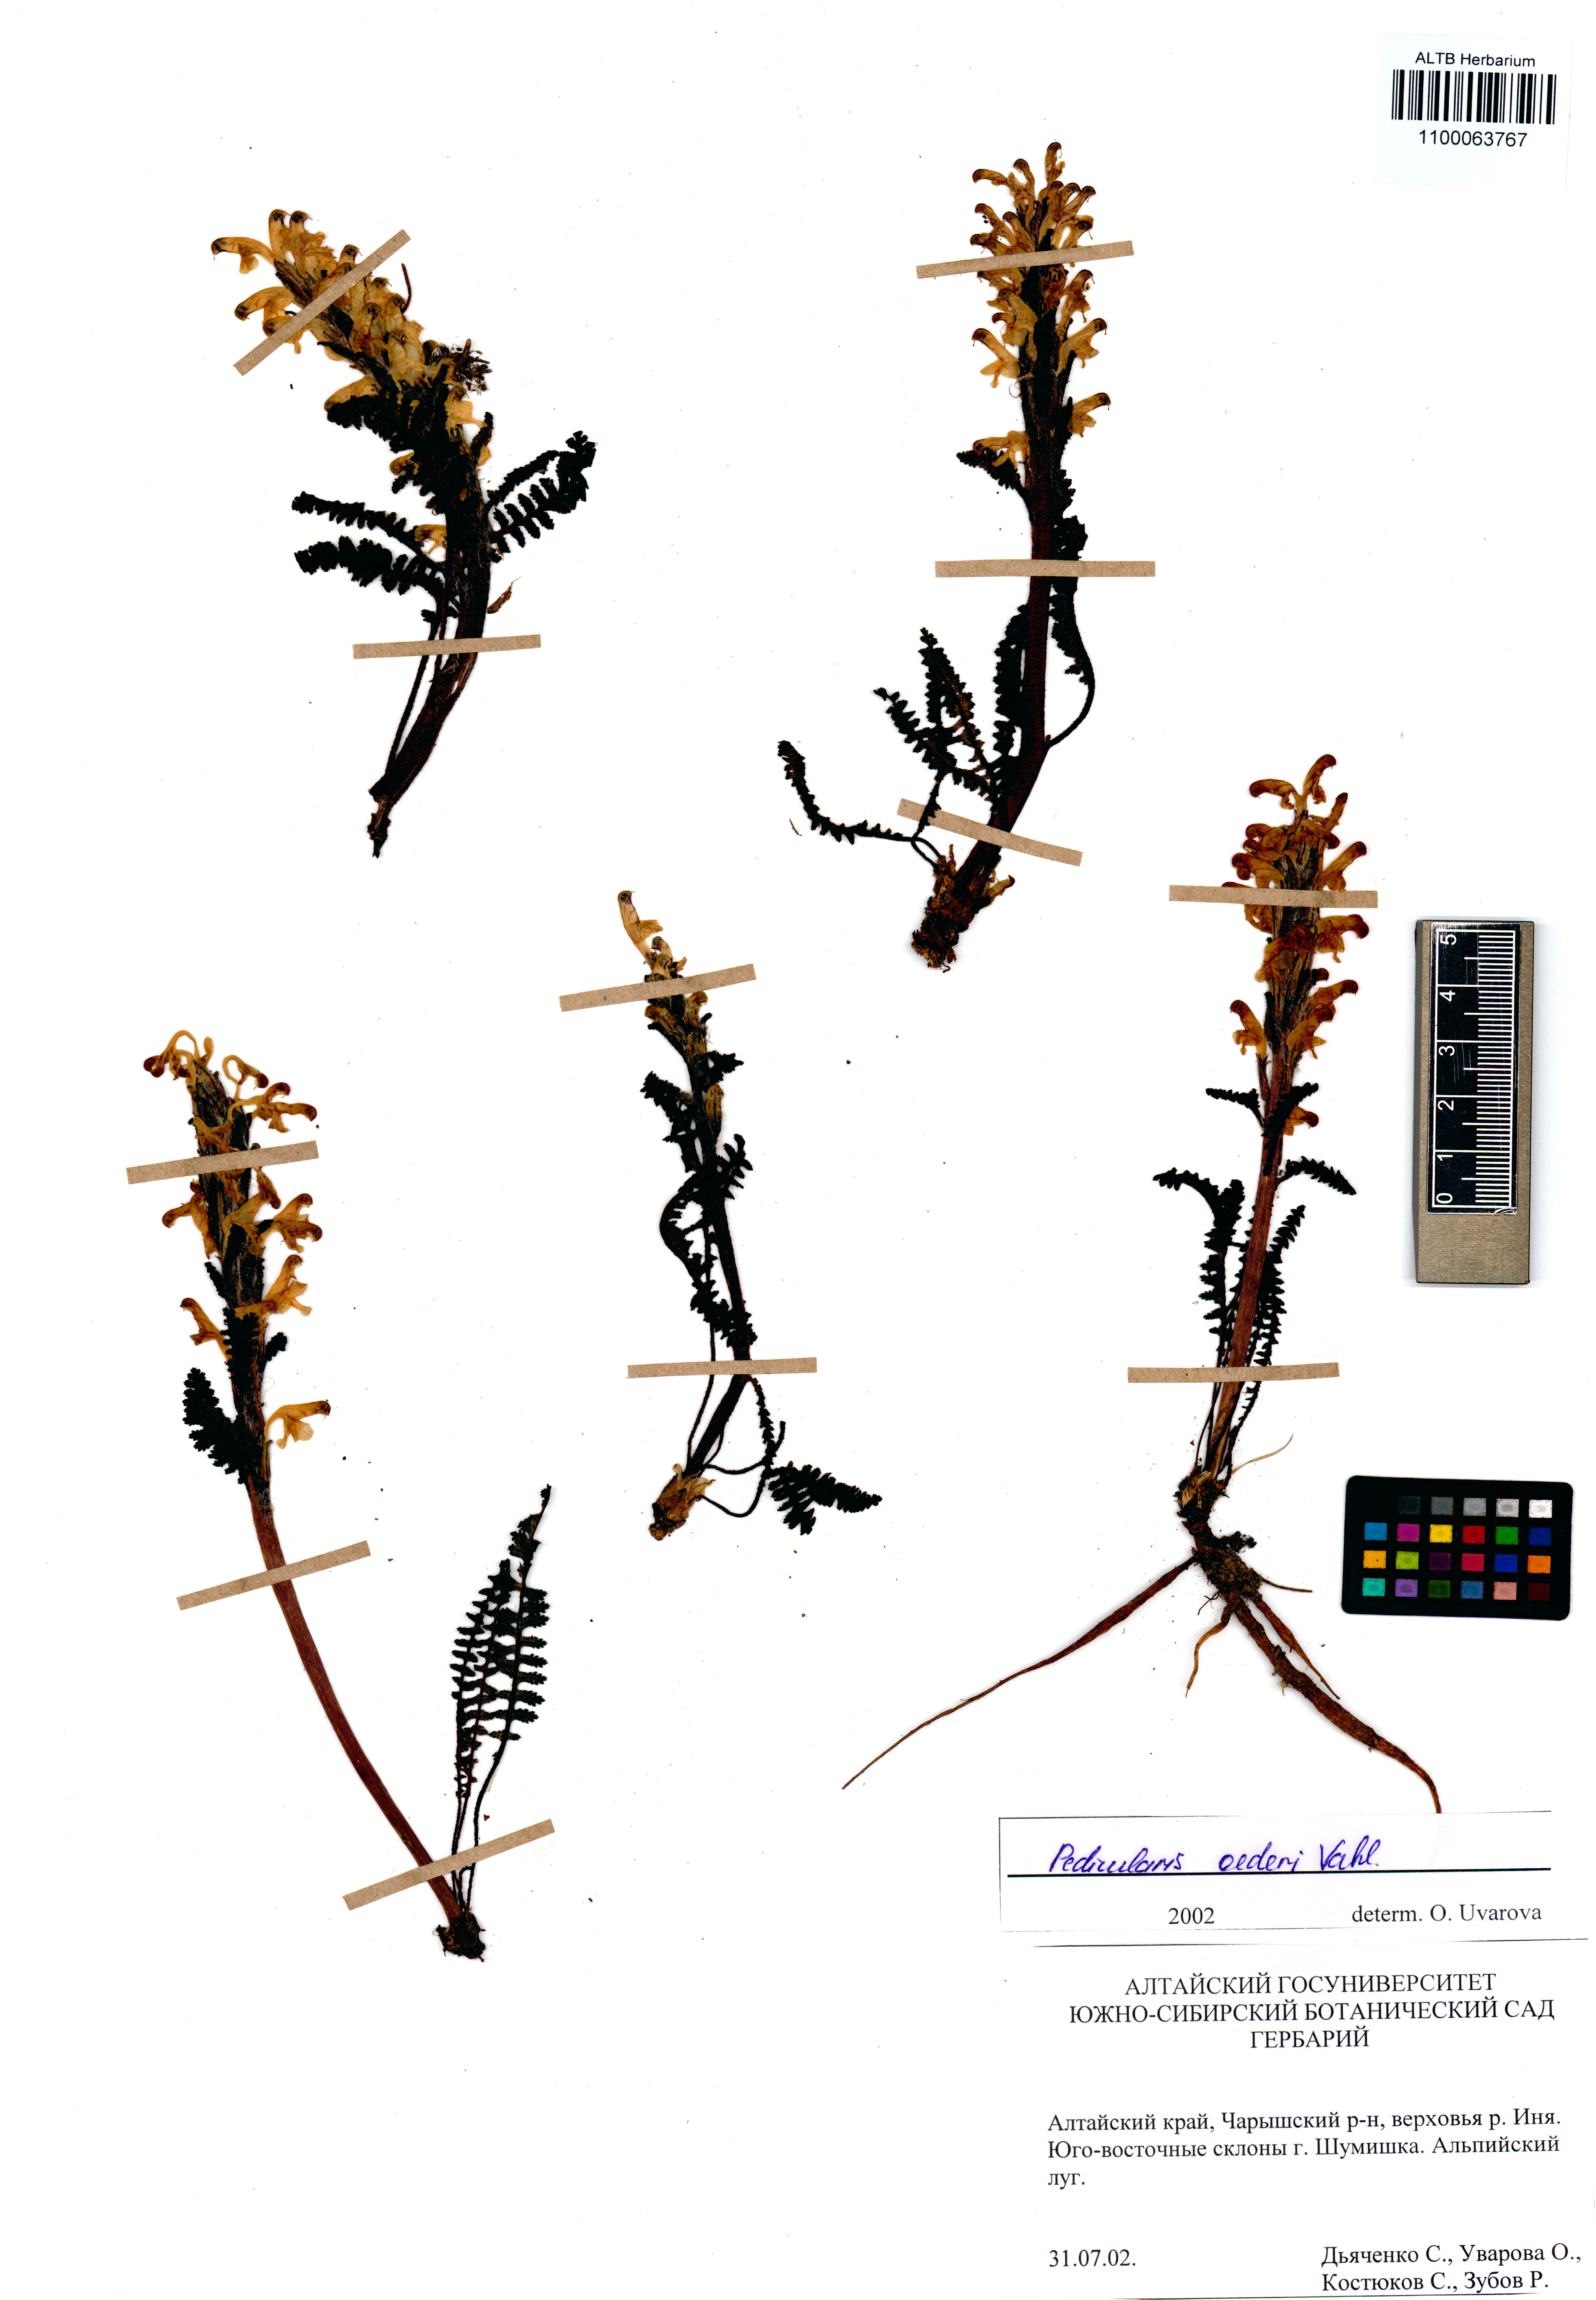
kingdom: Plantae
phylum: Tracheophyta
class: Magnoliopsida
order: Lamiales
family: Orobanchaceae
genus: Pedicularis
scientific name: Pedicularis oederi
